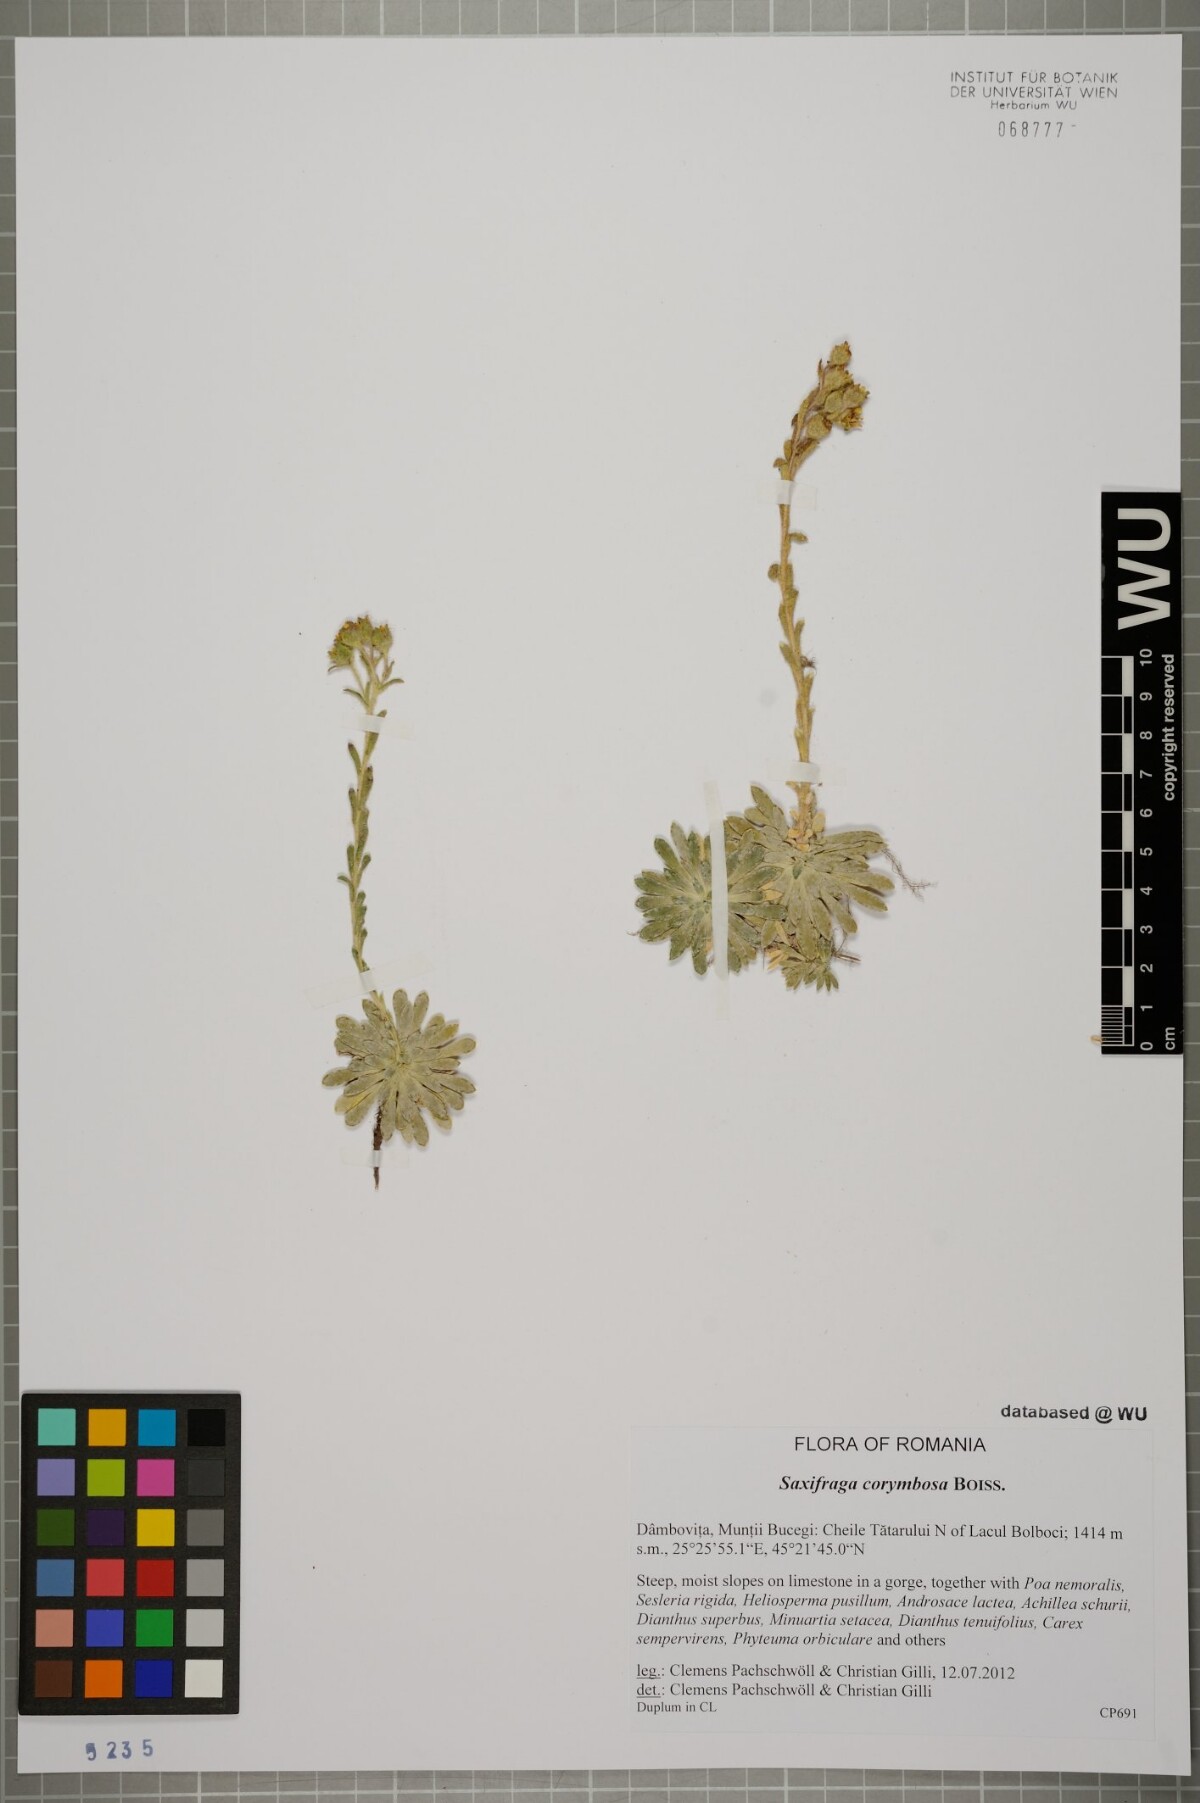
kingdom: Plantae
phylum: Tracheophyta
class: Magnoliopsida
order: Saxifragales
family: Saxifragaceae
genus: Saxifraga
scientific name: Saxifraga luteoviridis
